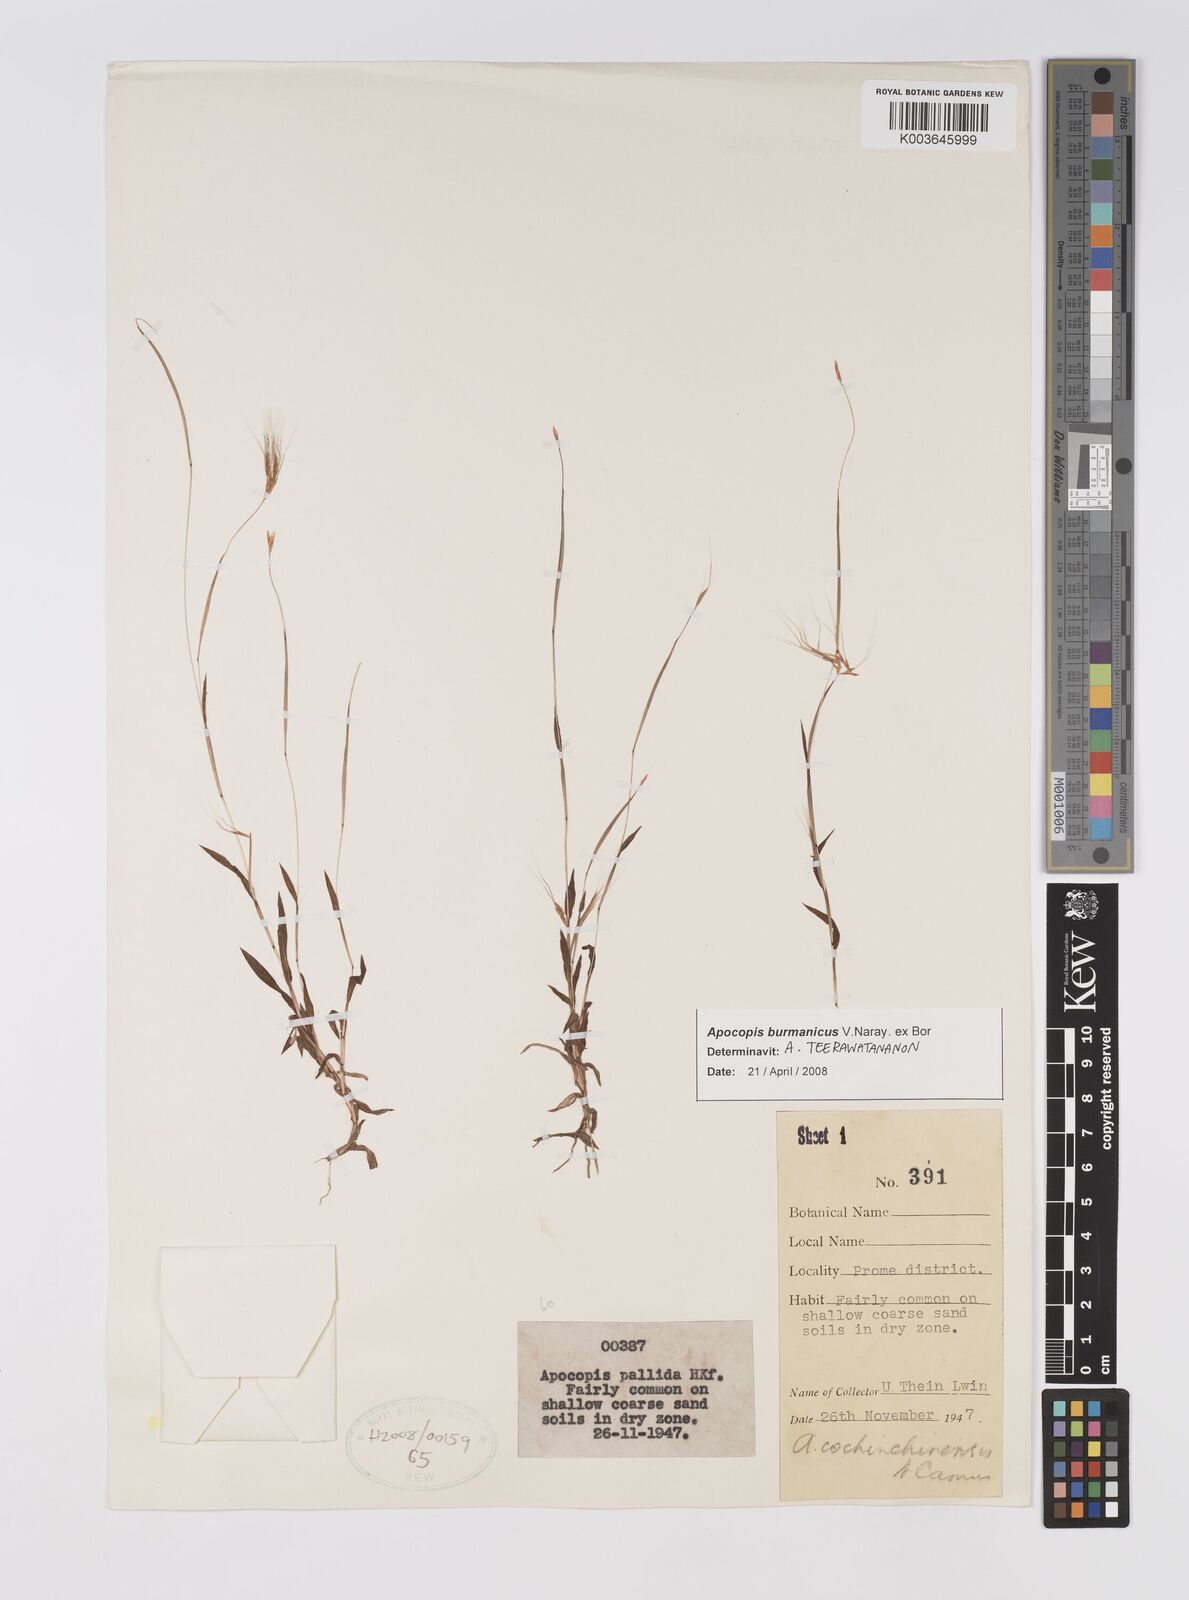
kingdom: Plantae
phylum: Tracheophyta
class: Liliopsida
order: Poales
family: Poaceae
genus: Apocopis
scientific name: Apocopis burmanicus
